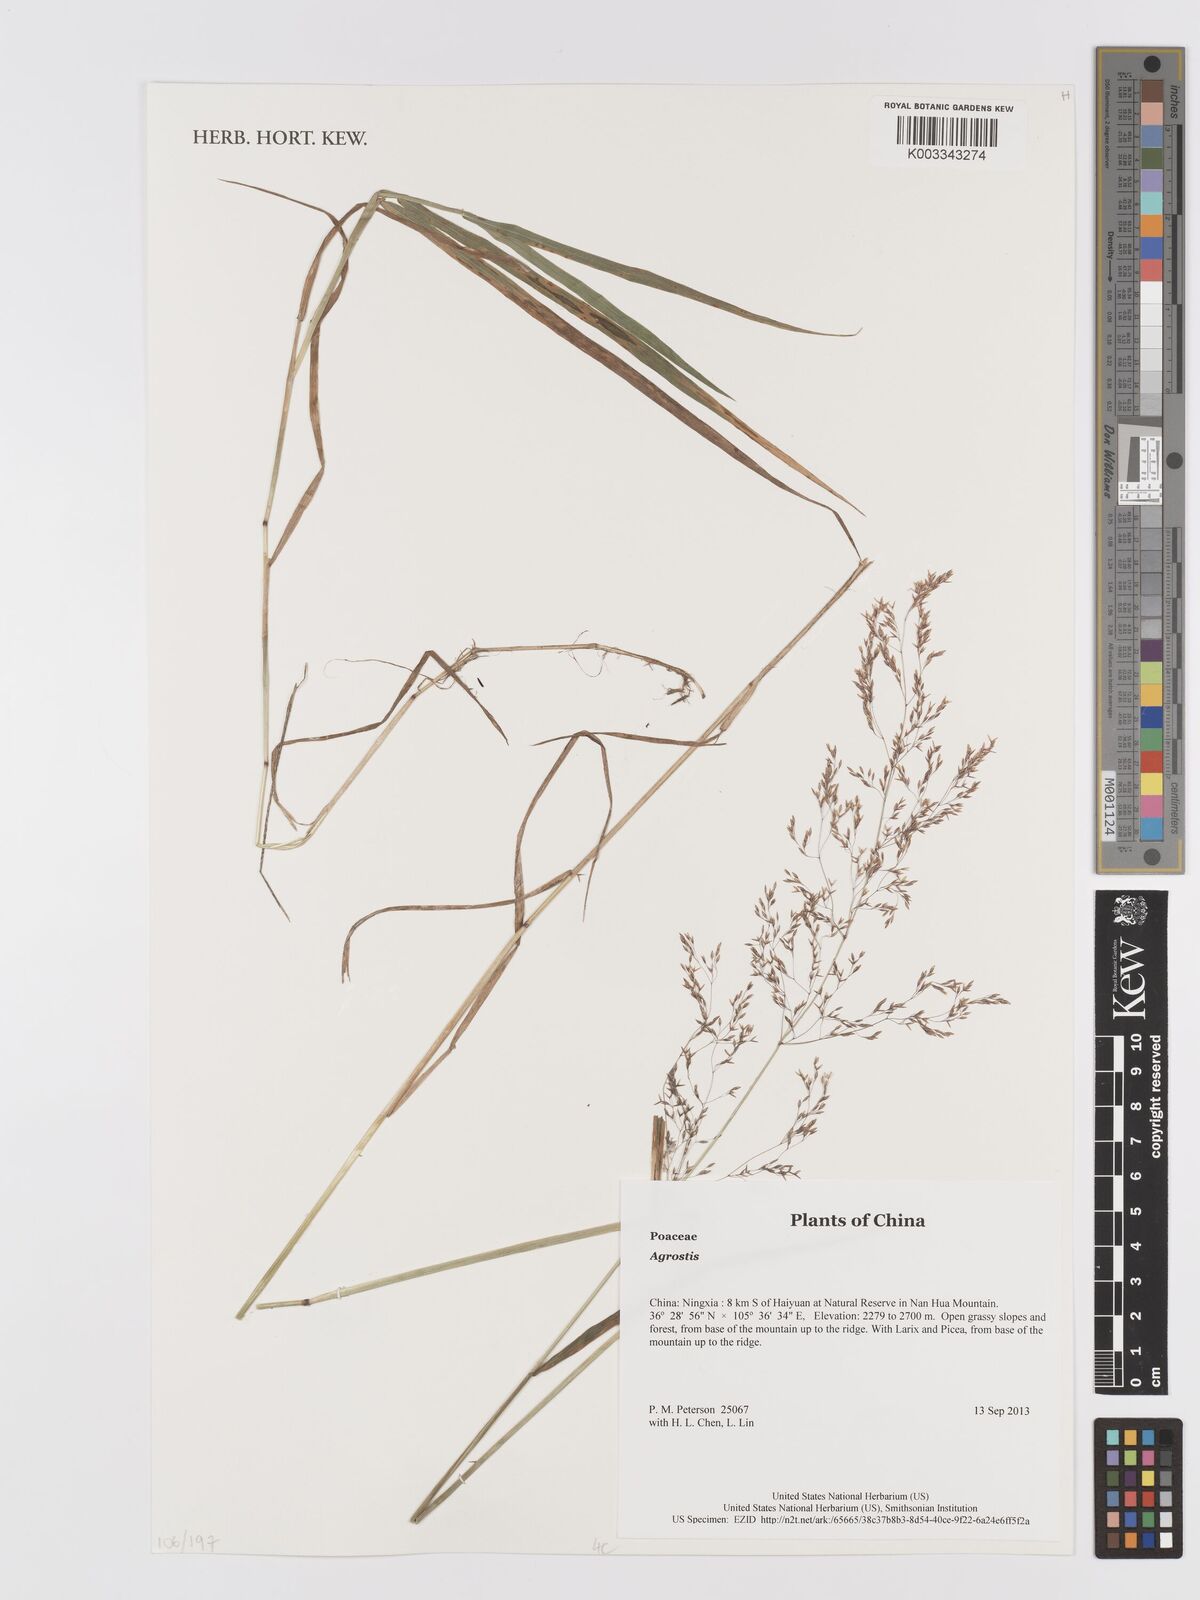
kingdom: Plantae
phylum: Tracheophyta
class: Liliopsida
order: Poales
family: Poaceae
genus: Agrostis
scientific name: Agrostis
